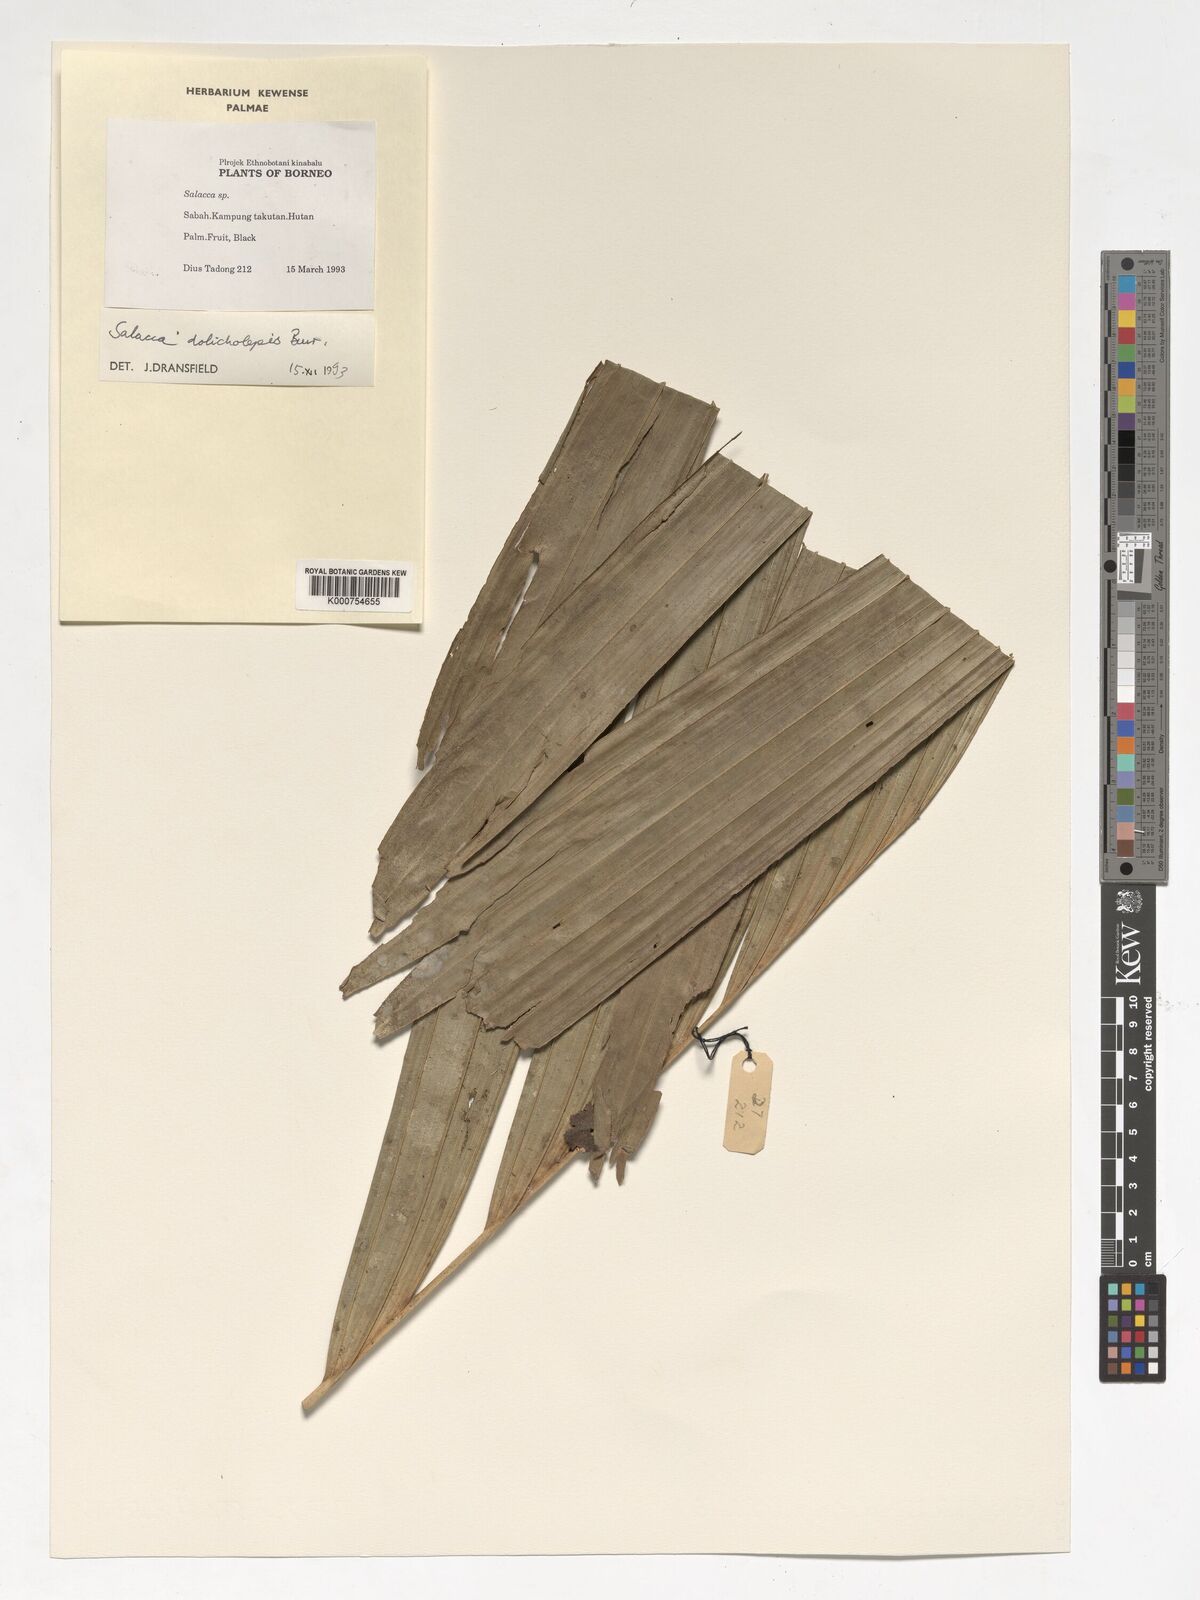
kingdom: Plantae
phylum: Tracheophyta
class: Liliopsida
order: Arecales
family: Arecaceae
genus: Salacca
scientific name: Salacca dolicholepis
